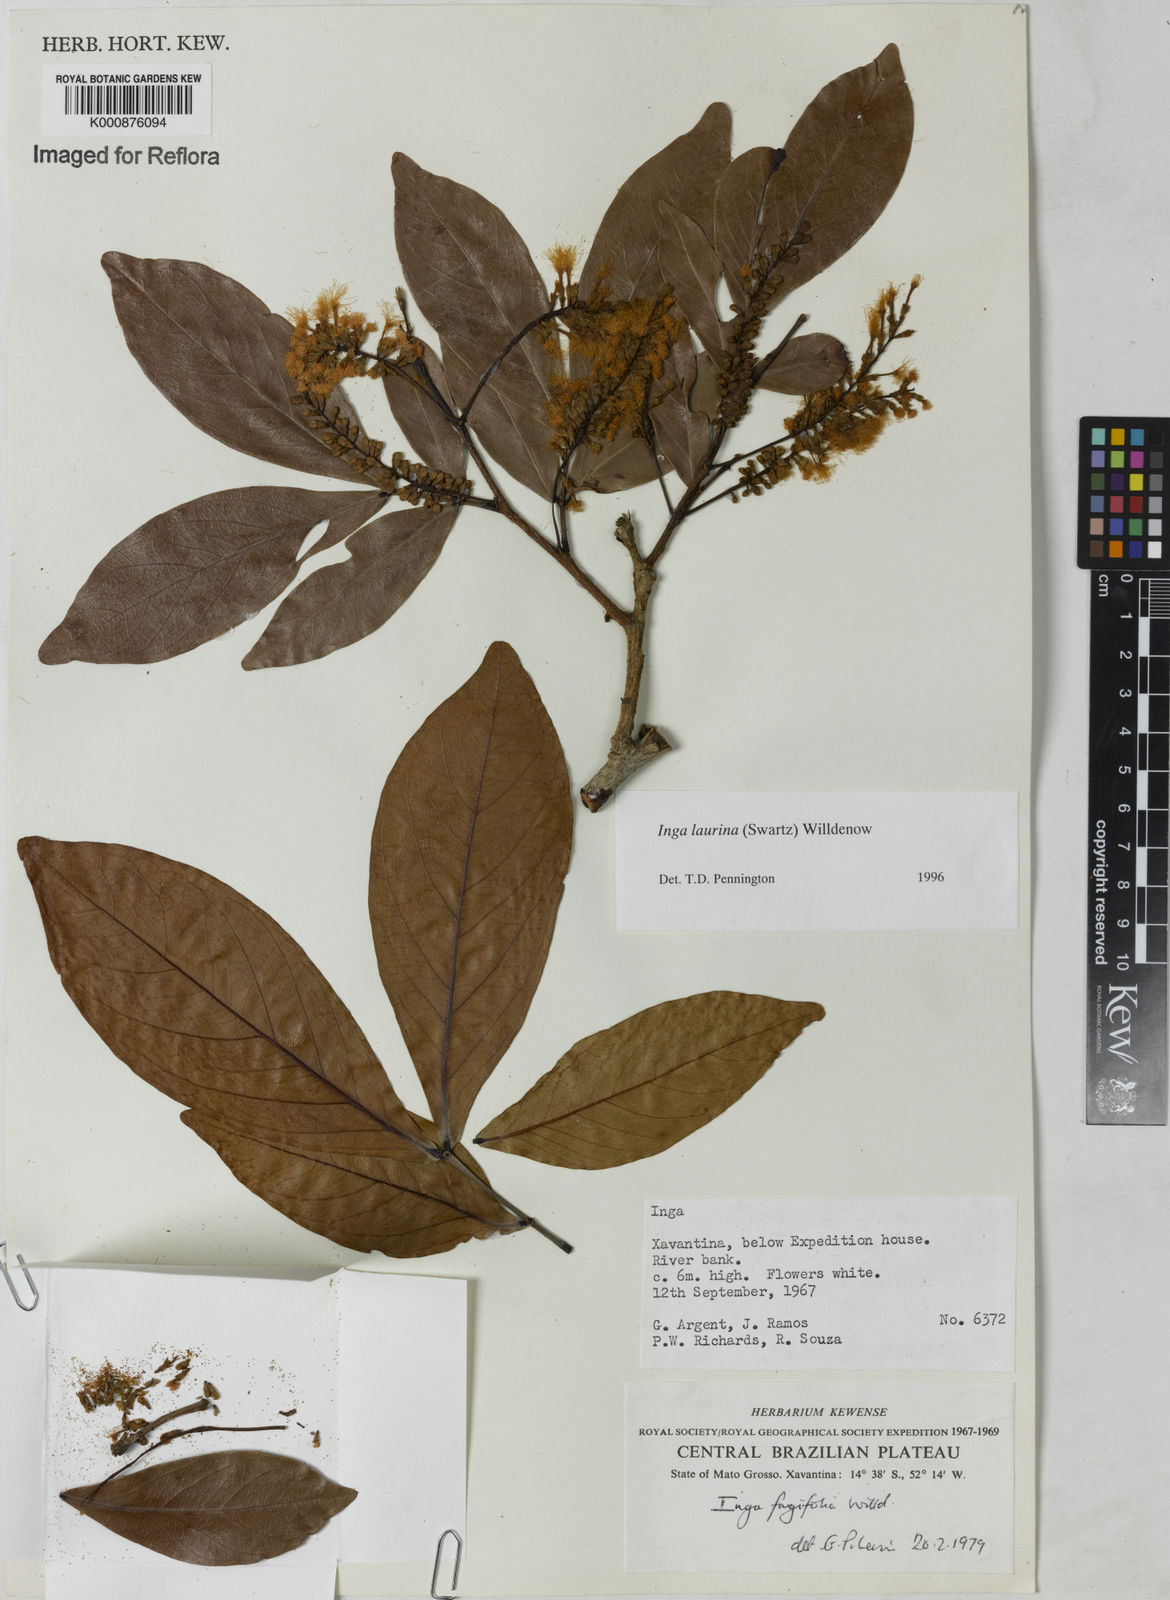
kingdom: Plantae
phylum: Tracheophyta
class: Magnoliopsida
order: Fabales
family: Fabaceae
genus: Inga
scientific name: Inga laurina
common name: Red wood
